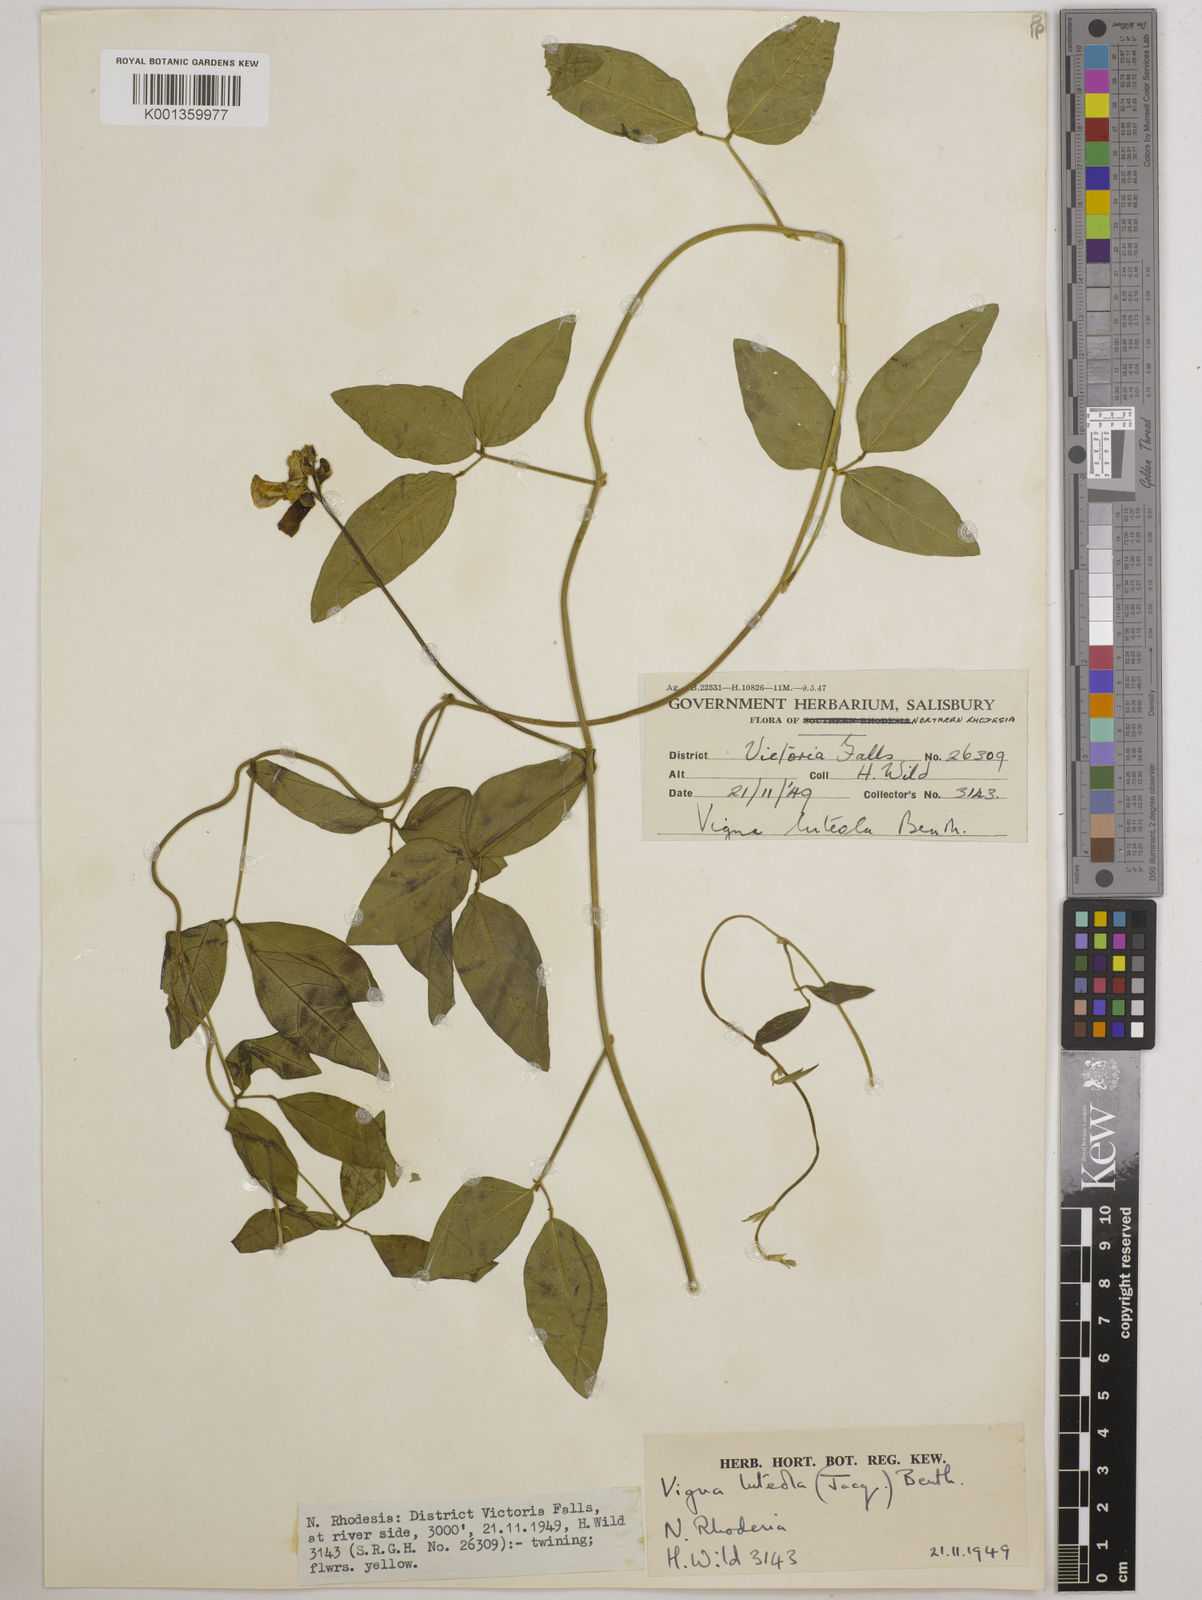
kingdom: Plantae
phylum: Tracheophyta
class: Magnoliopsida
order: Fabales
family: Fabaceae
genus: Vigna
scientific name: Vigna luteola
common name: Hairypod cowpea
